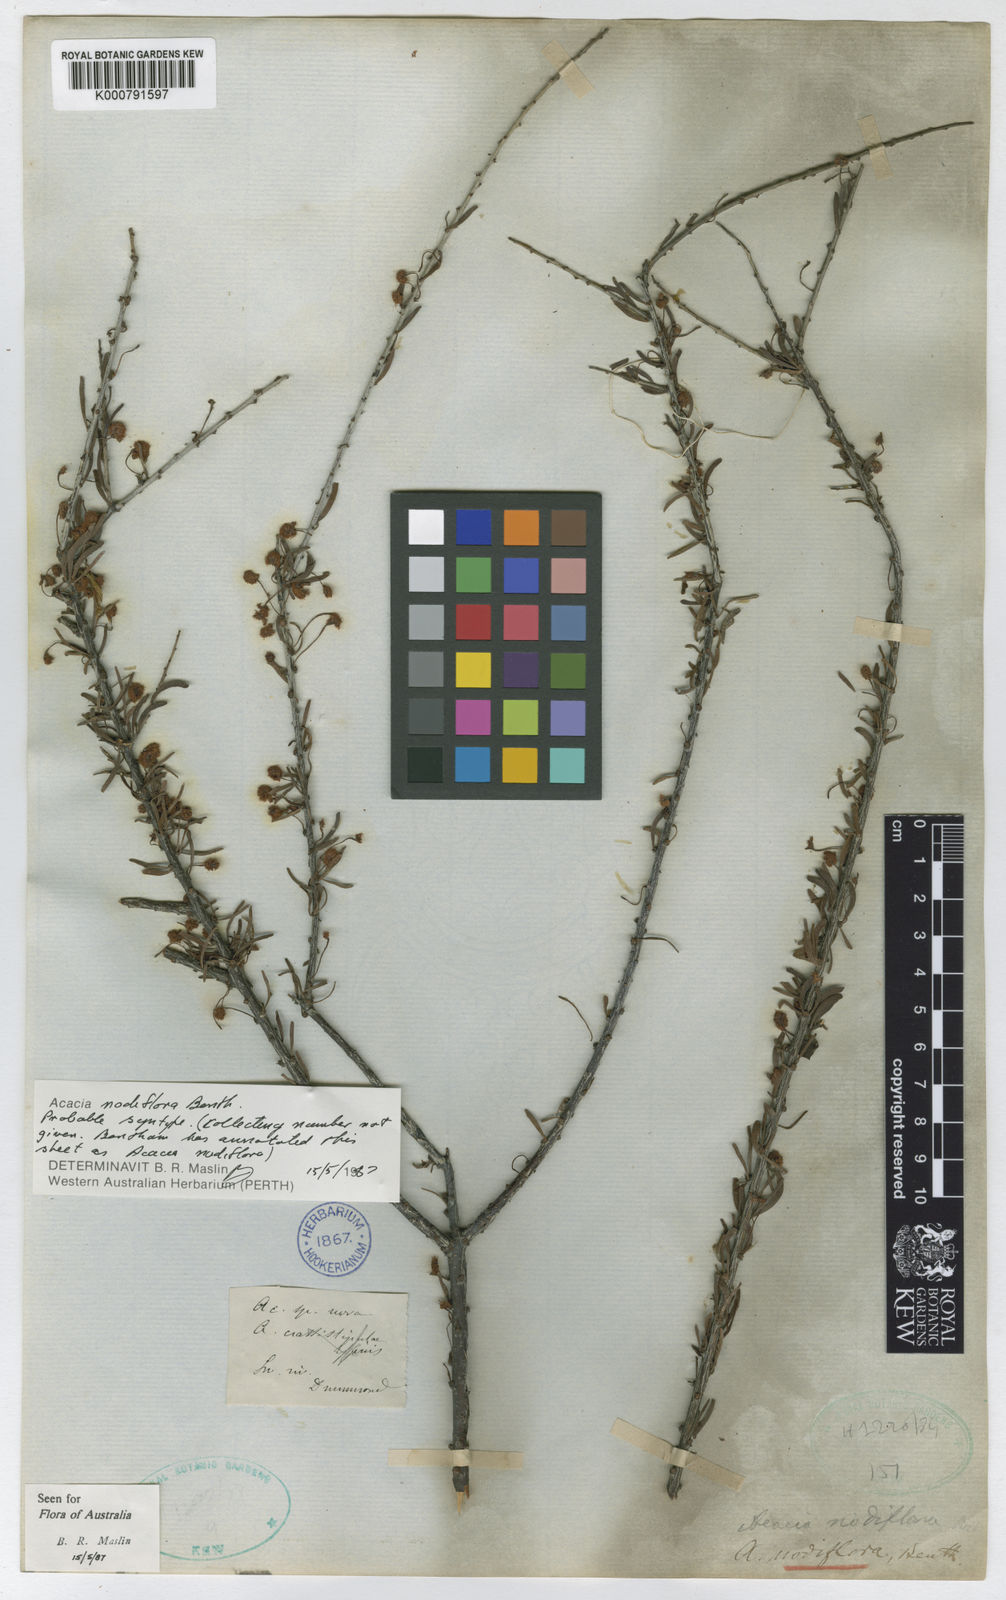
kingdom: Plantae
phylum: Tracheophyta
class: Magnoliopsida
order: Fabales
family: Fabaceae
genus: Acacia
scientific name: Acacia nodiflora
